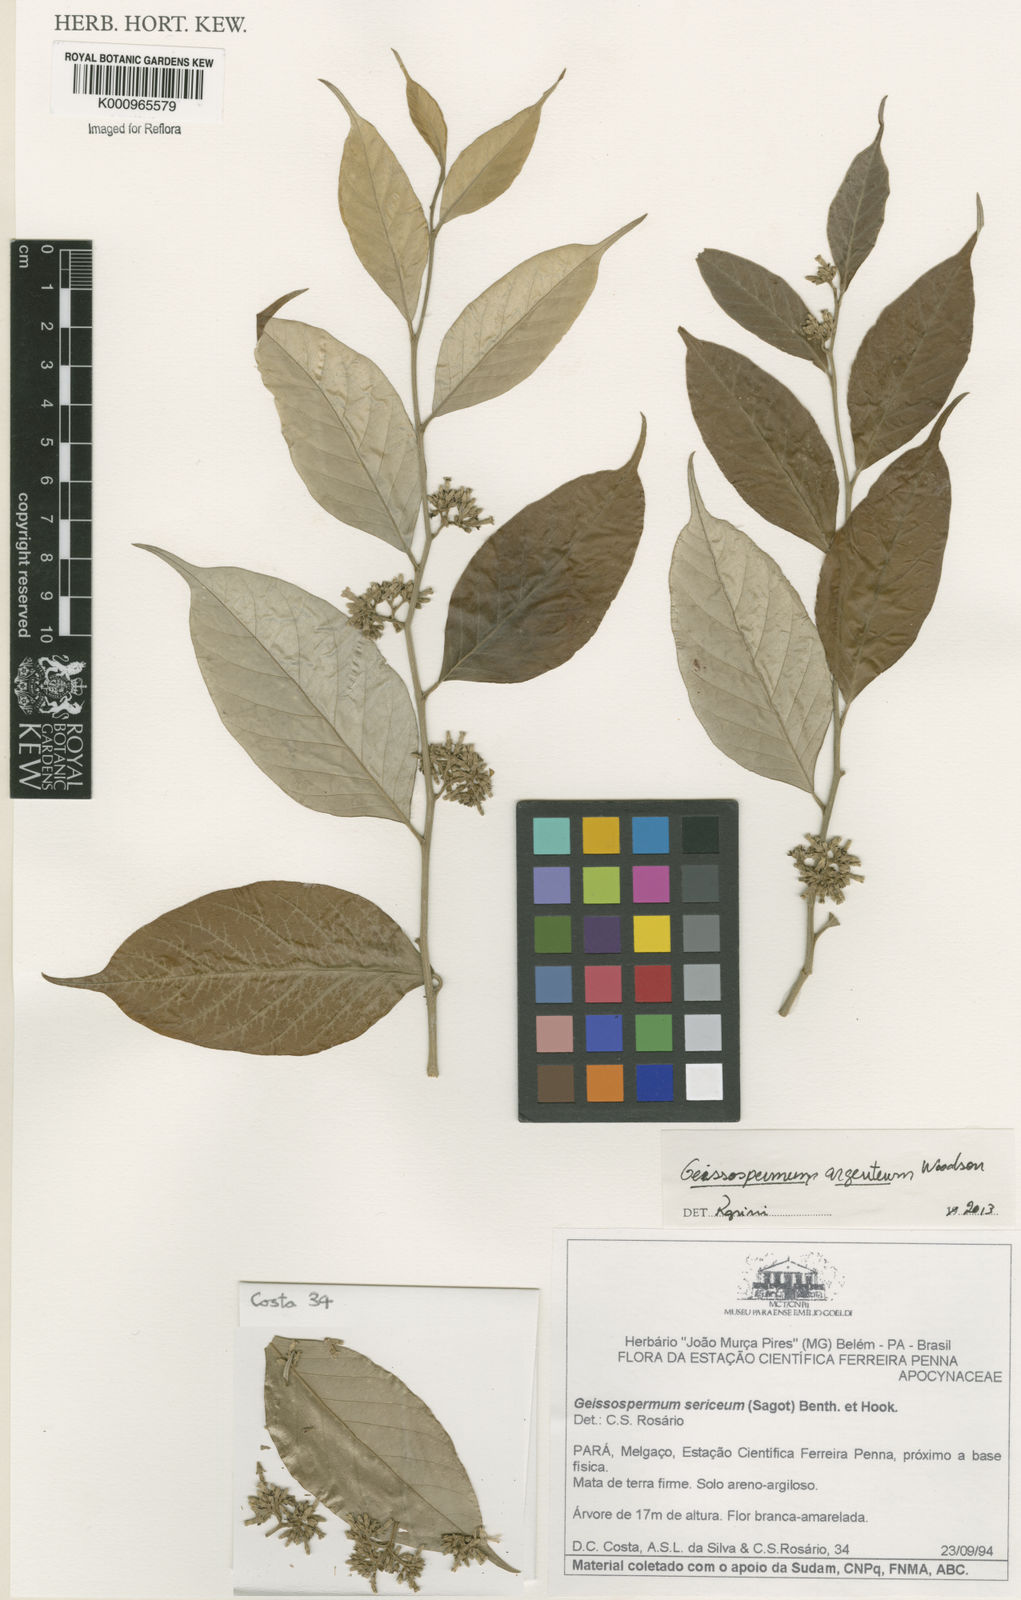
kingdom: Plantae
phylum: Tracheophyta
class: Magnoliopsida
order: Gentianales
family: Apocynaceae
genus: Geissospermum
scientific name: Geissospermum argenteum
